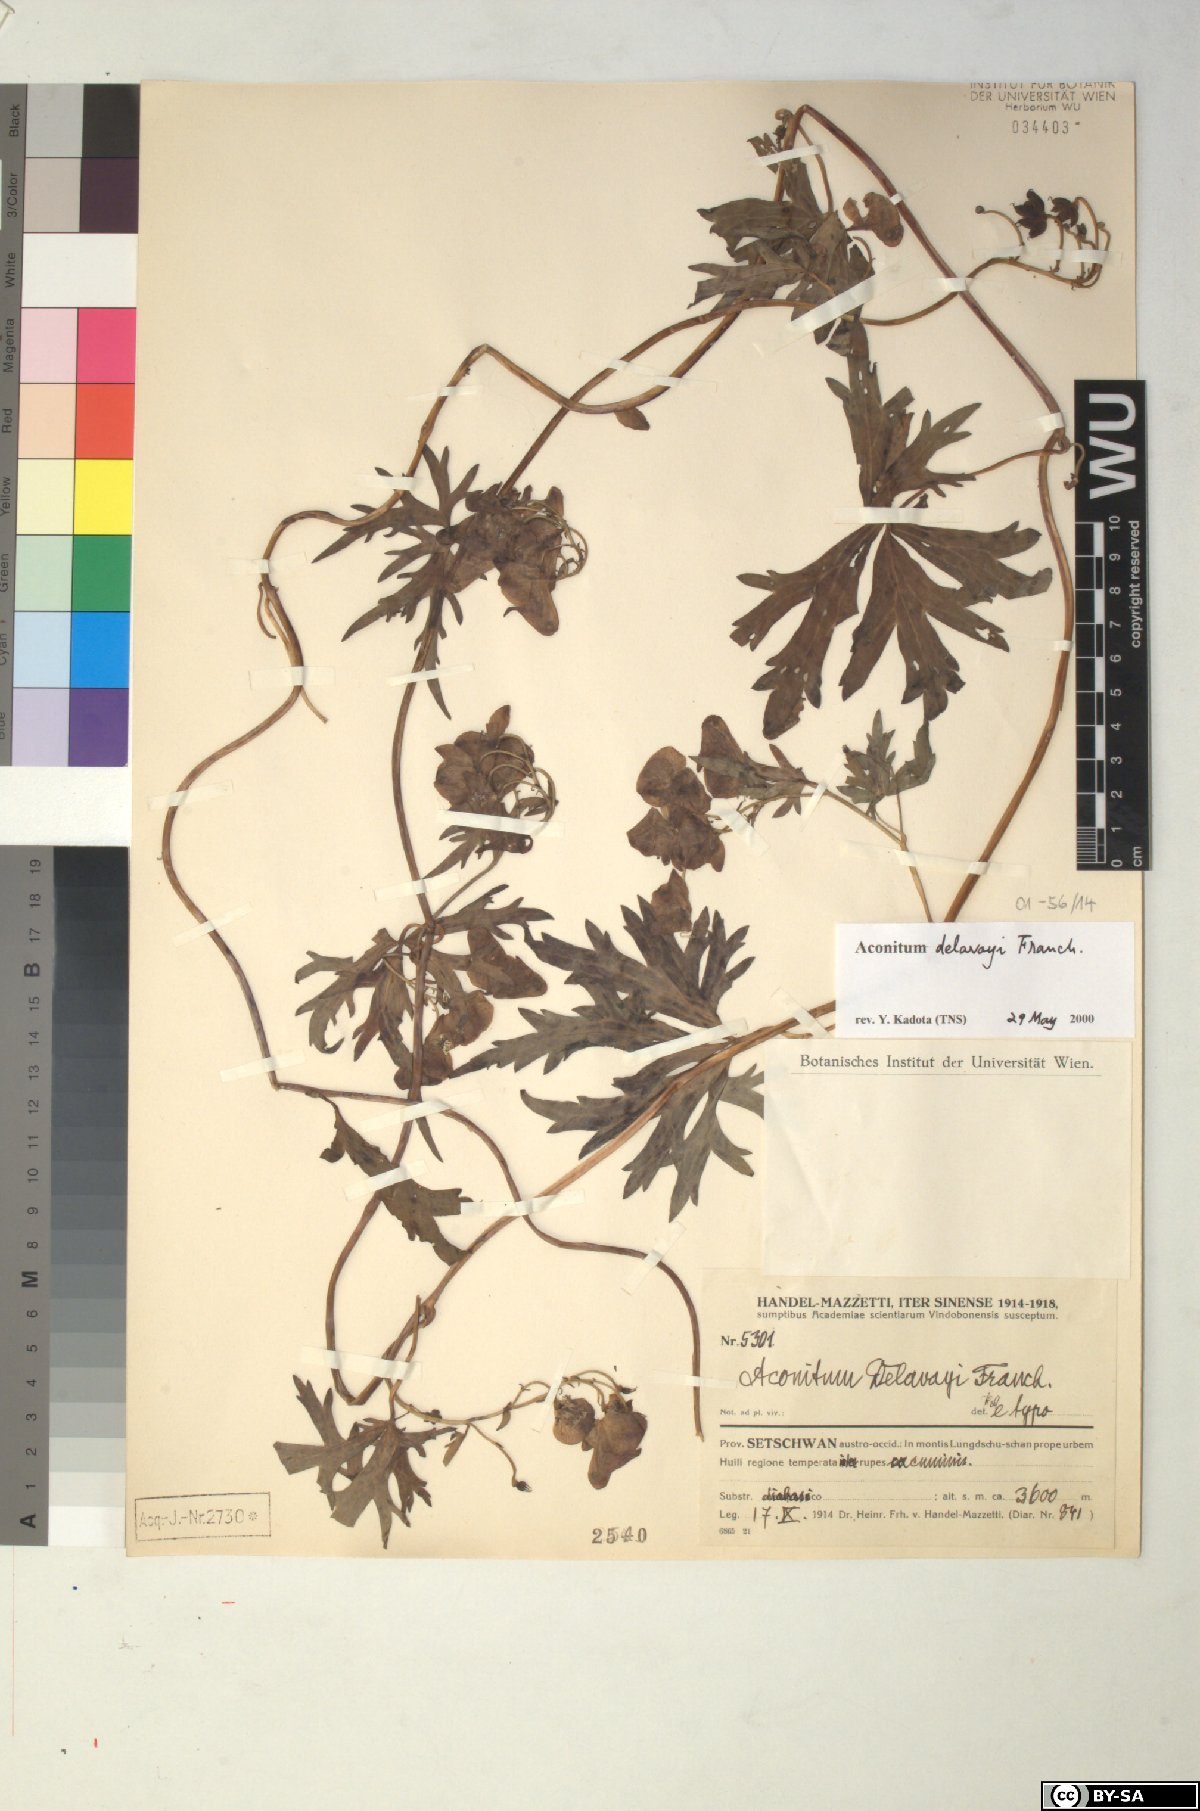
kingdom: Plantae
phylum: Tracheophyta
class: Magnoliopsida
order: Ranunculales
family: Ranunculaceae
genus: Aconitum
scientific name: Aconitum delavayi
